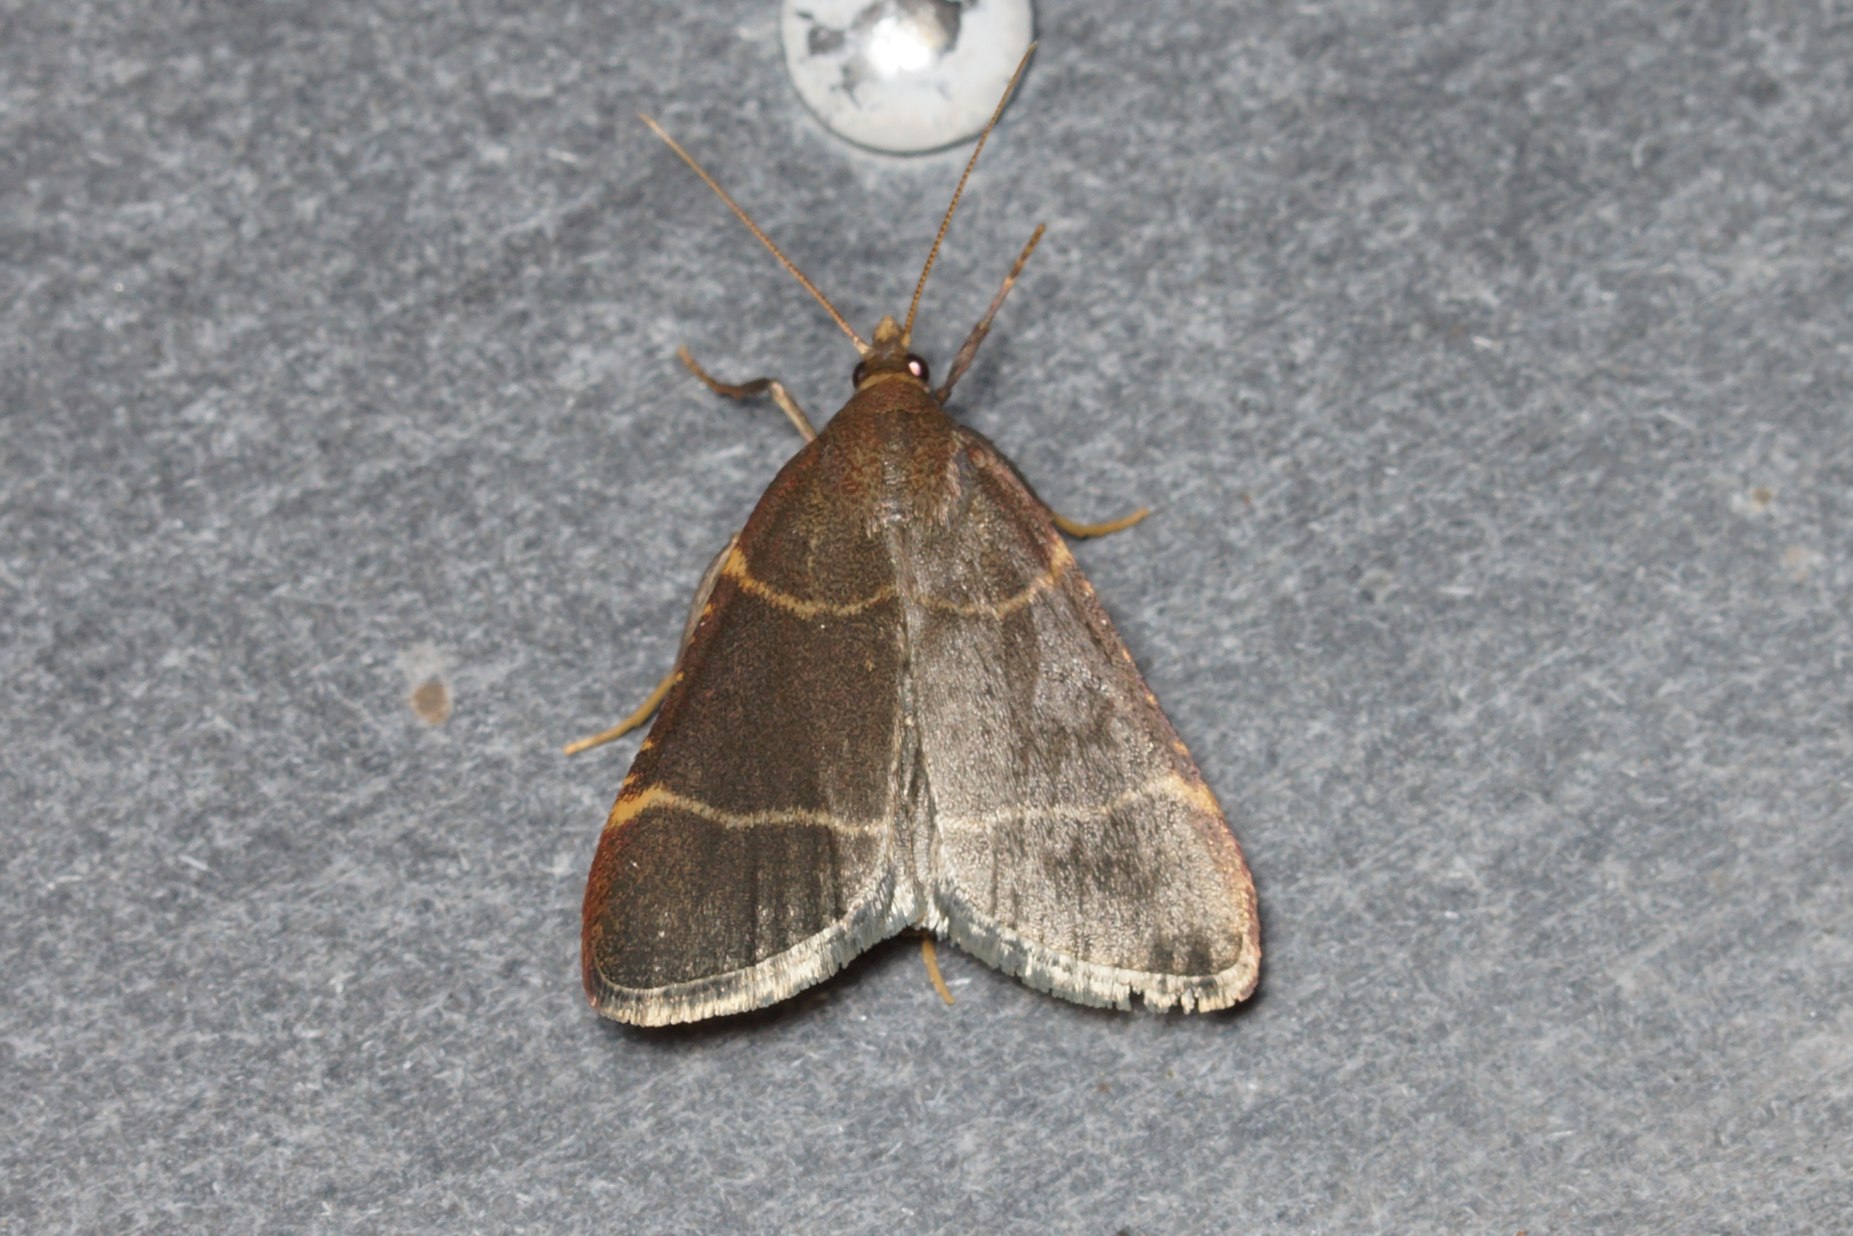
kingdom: Animalia
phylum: Arthropoda
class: Insecta
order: Lepidoptera
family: Pyralidae
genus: Hypsopygia
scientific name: Hypsopygia glaucinalis
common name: Blågråt herkuleshalvmøl
